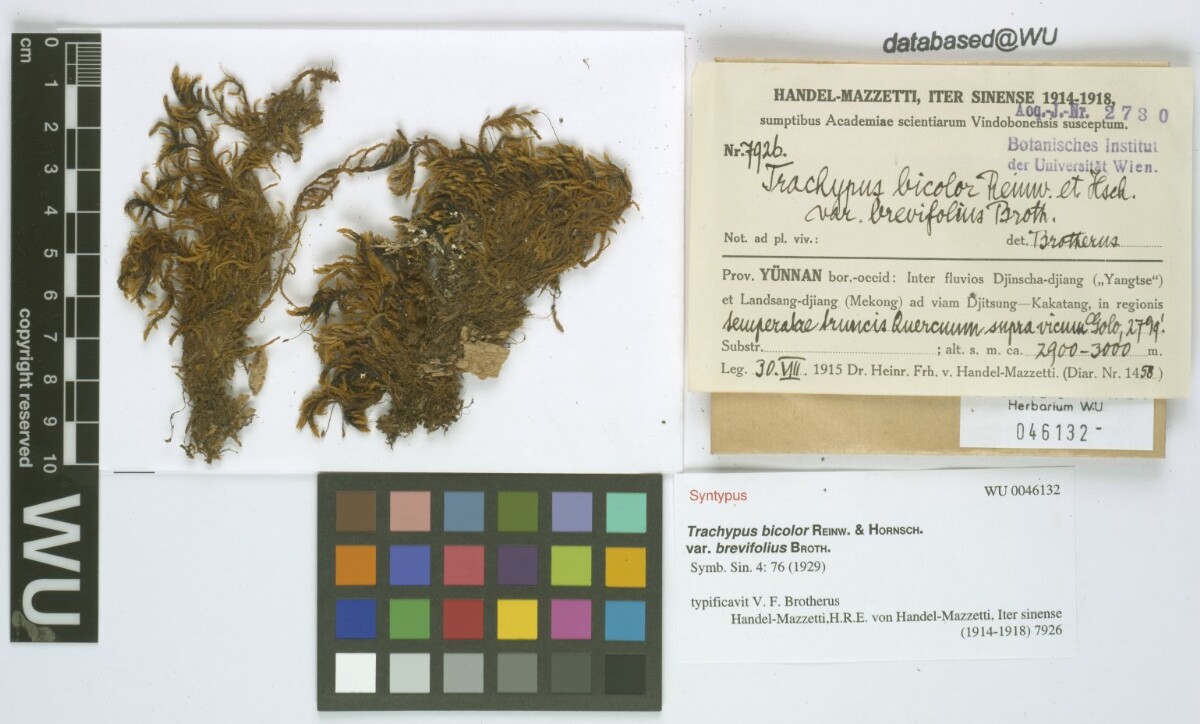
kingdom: Plantae
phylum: Bryophyta
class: Bryopsida
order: Hypnales
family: Meteoriaceae
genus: Trachypus
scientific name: Trachypus bicolor
